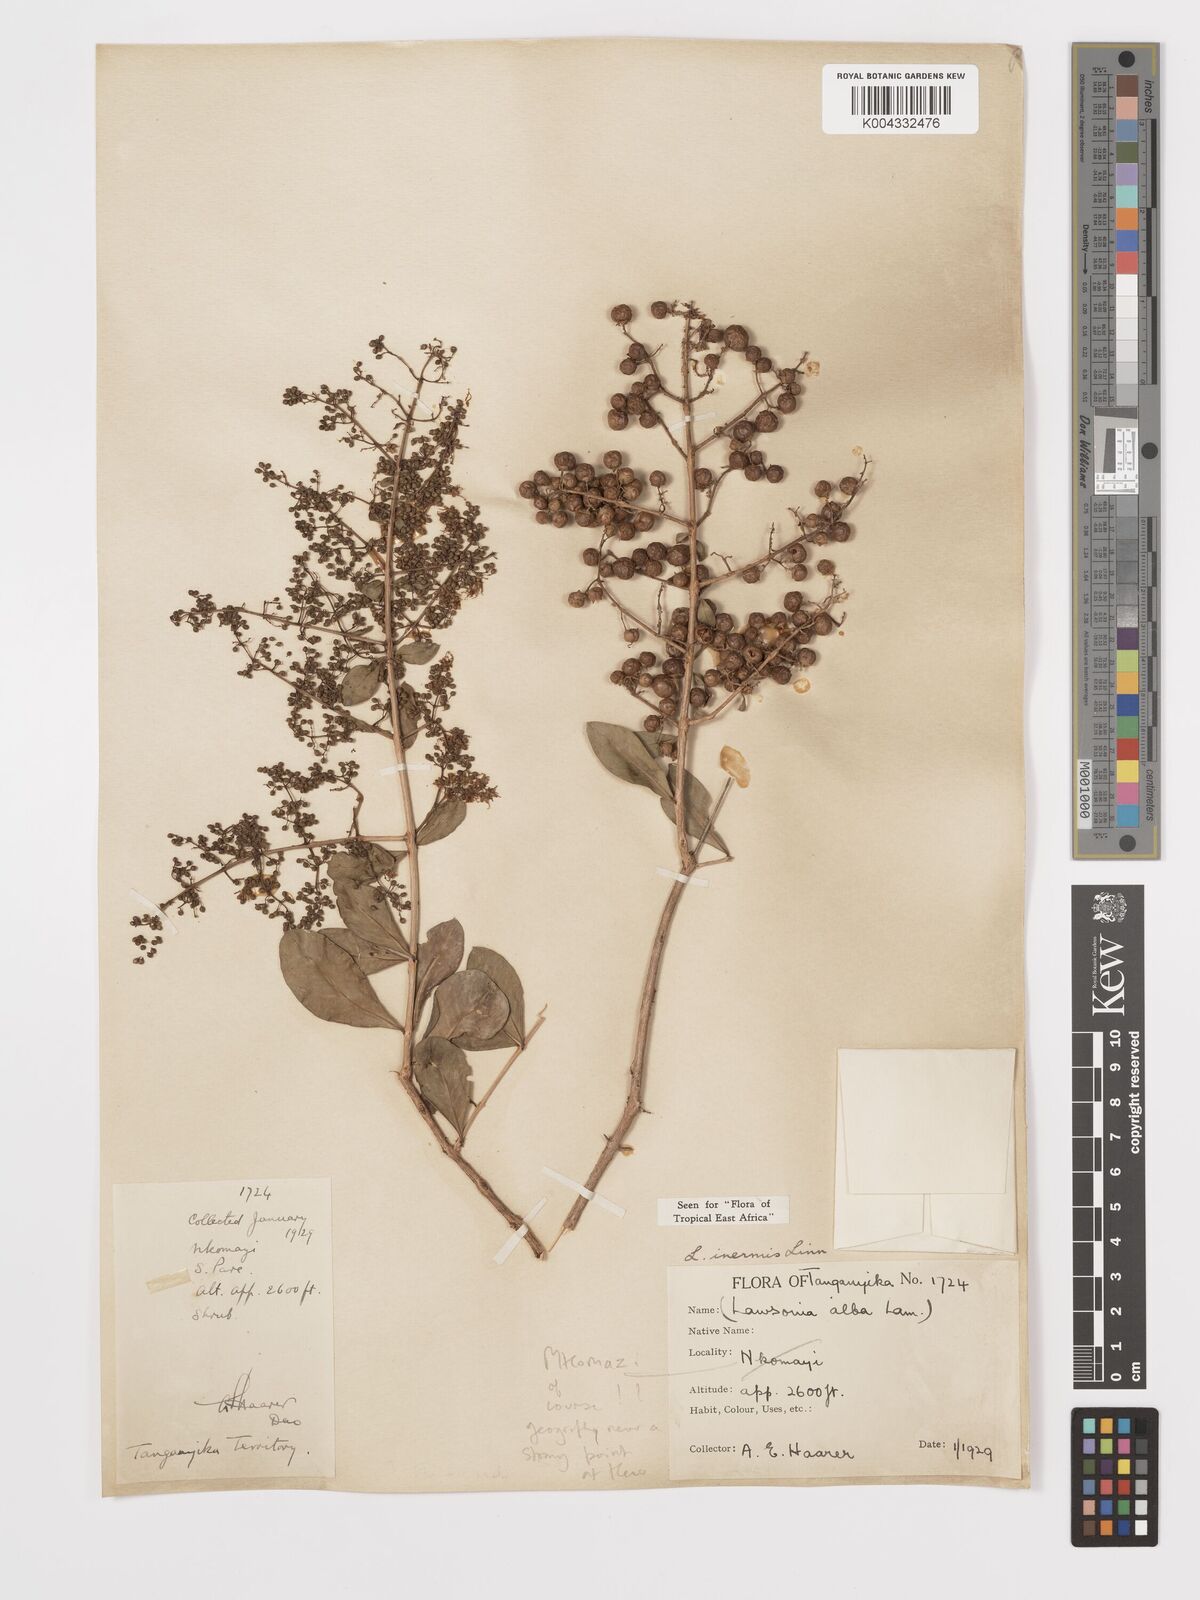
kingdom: Plantae
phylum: Tracheophyta
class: Magnoliopsida
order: Myrtales
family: Lythraceae
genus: Lawsonia
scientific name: Lawsonia inermis
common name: Henna
